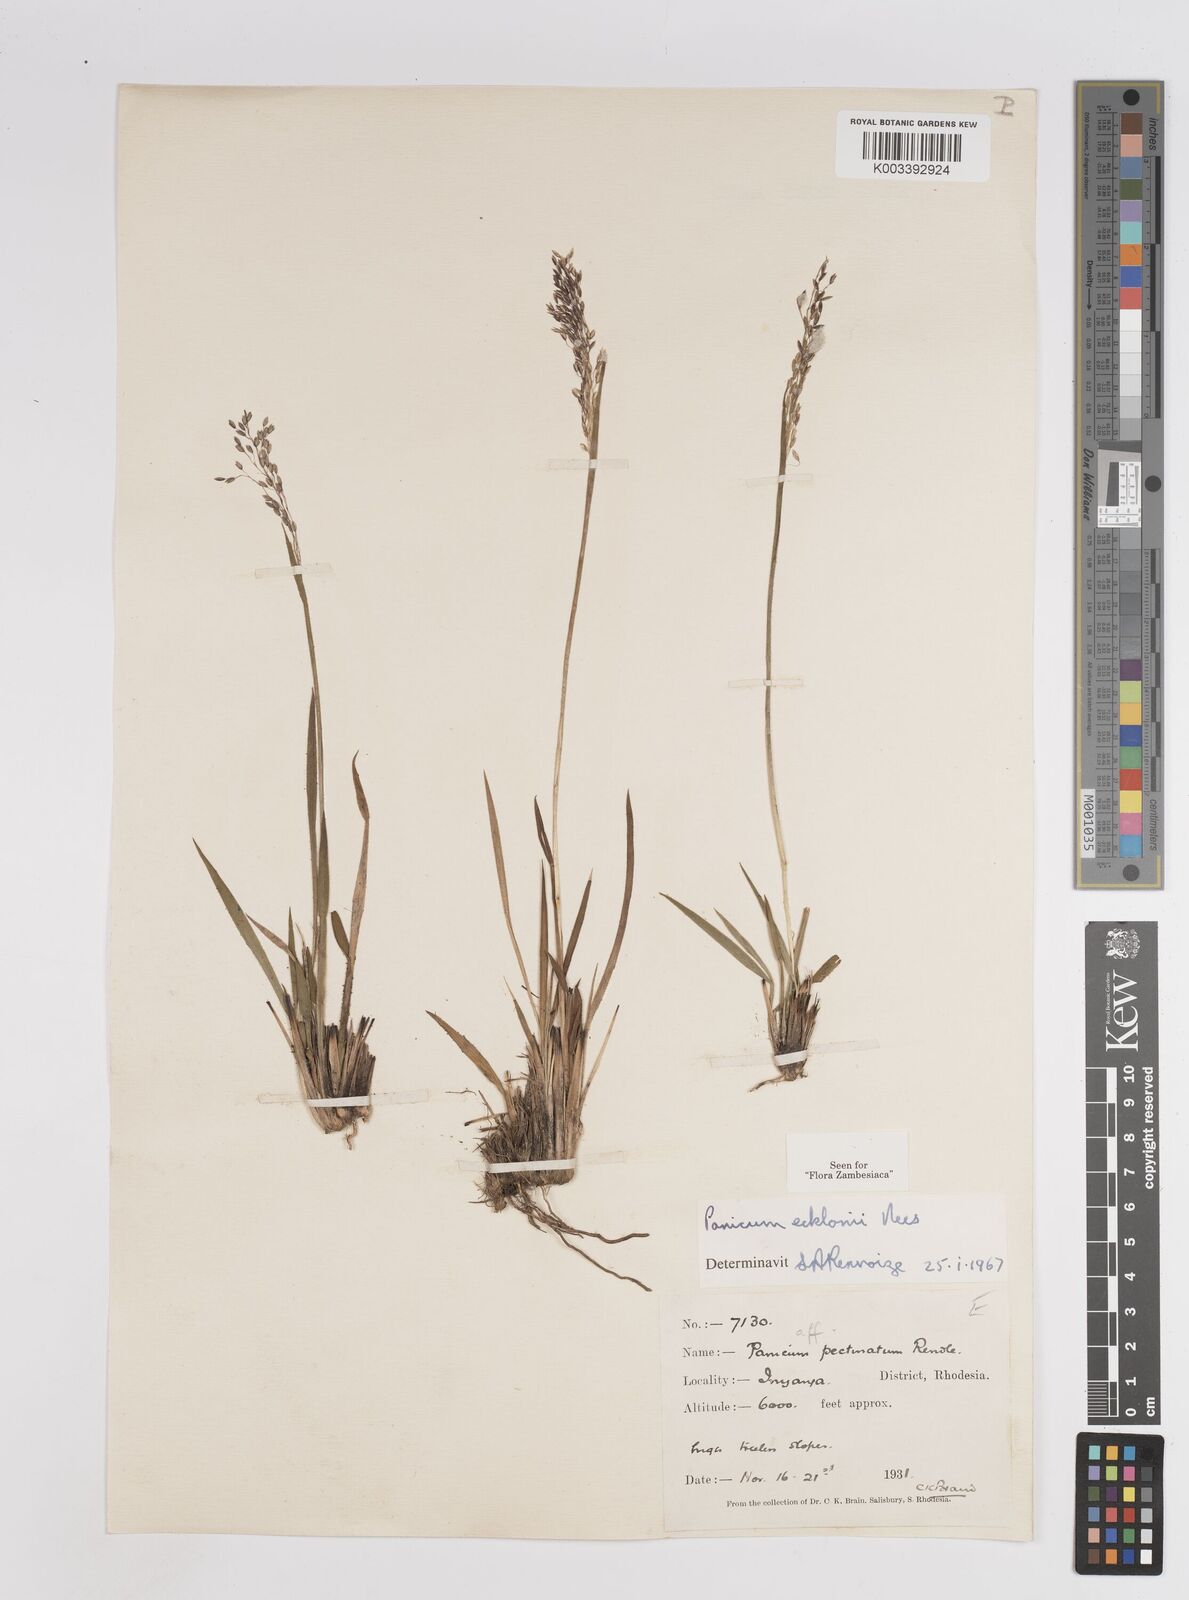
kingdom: Plantae
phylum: Tracheophyta
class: Liliopsida
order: Poales
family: Poaceae
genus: Adenochloa
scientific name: Adenochloa ecklonii
